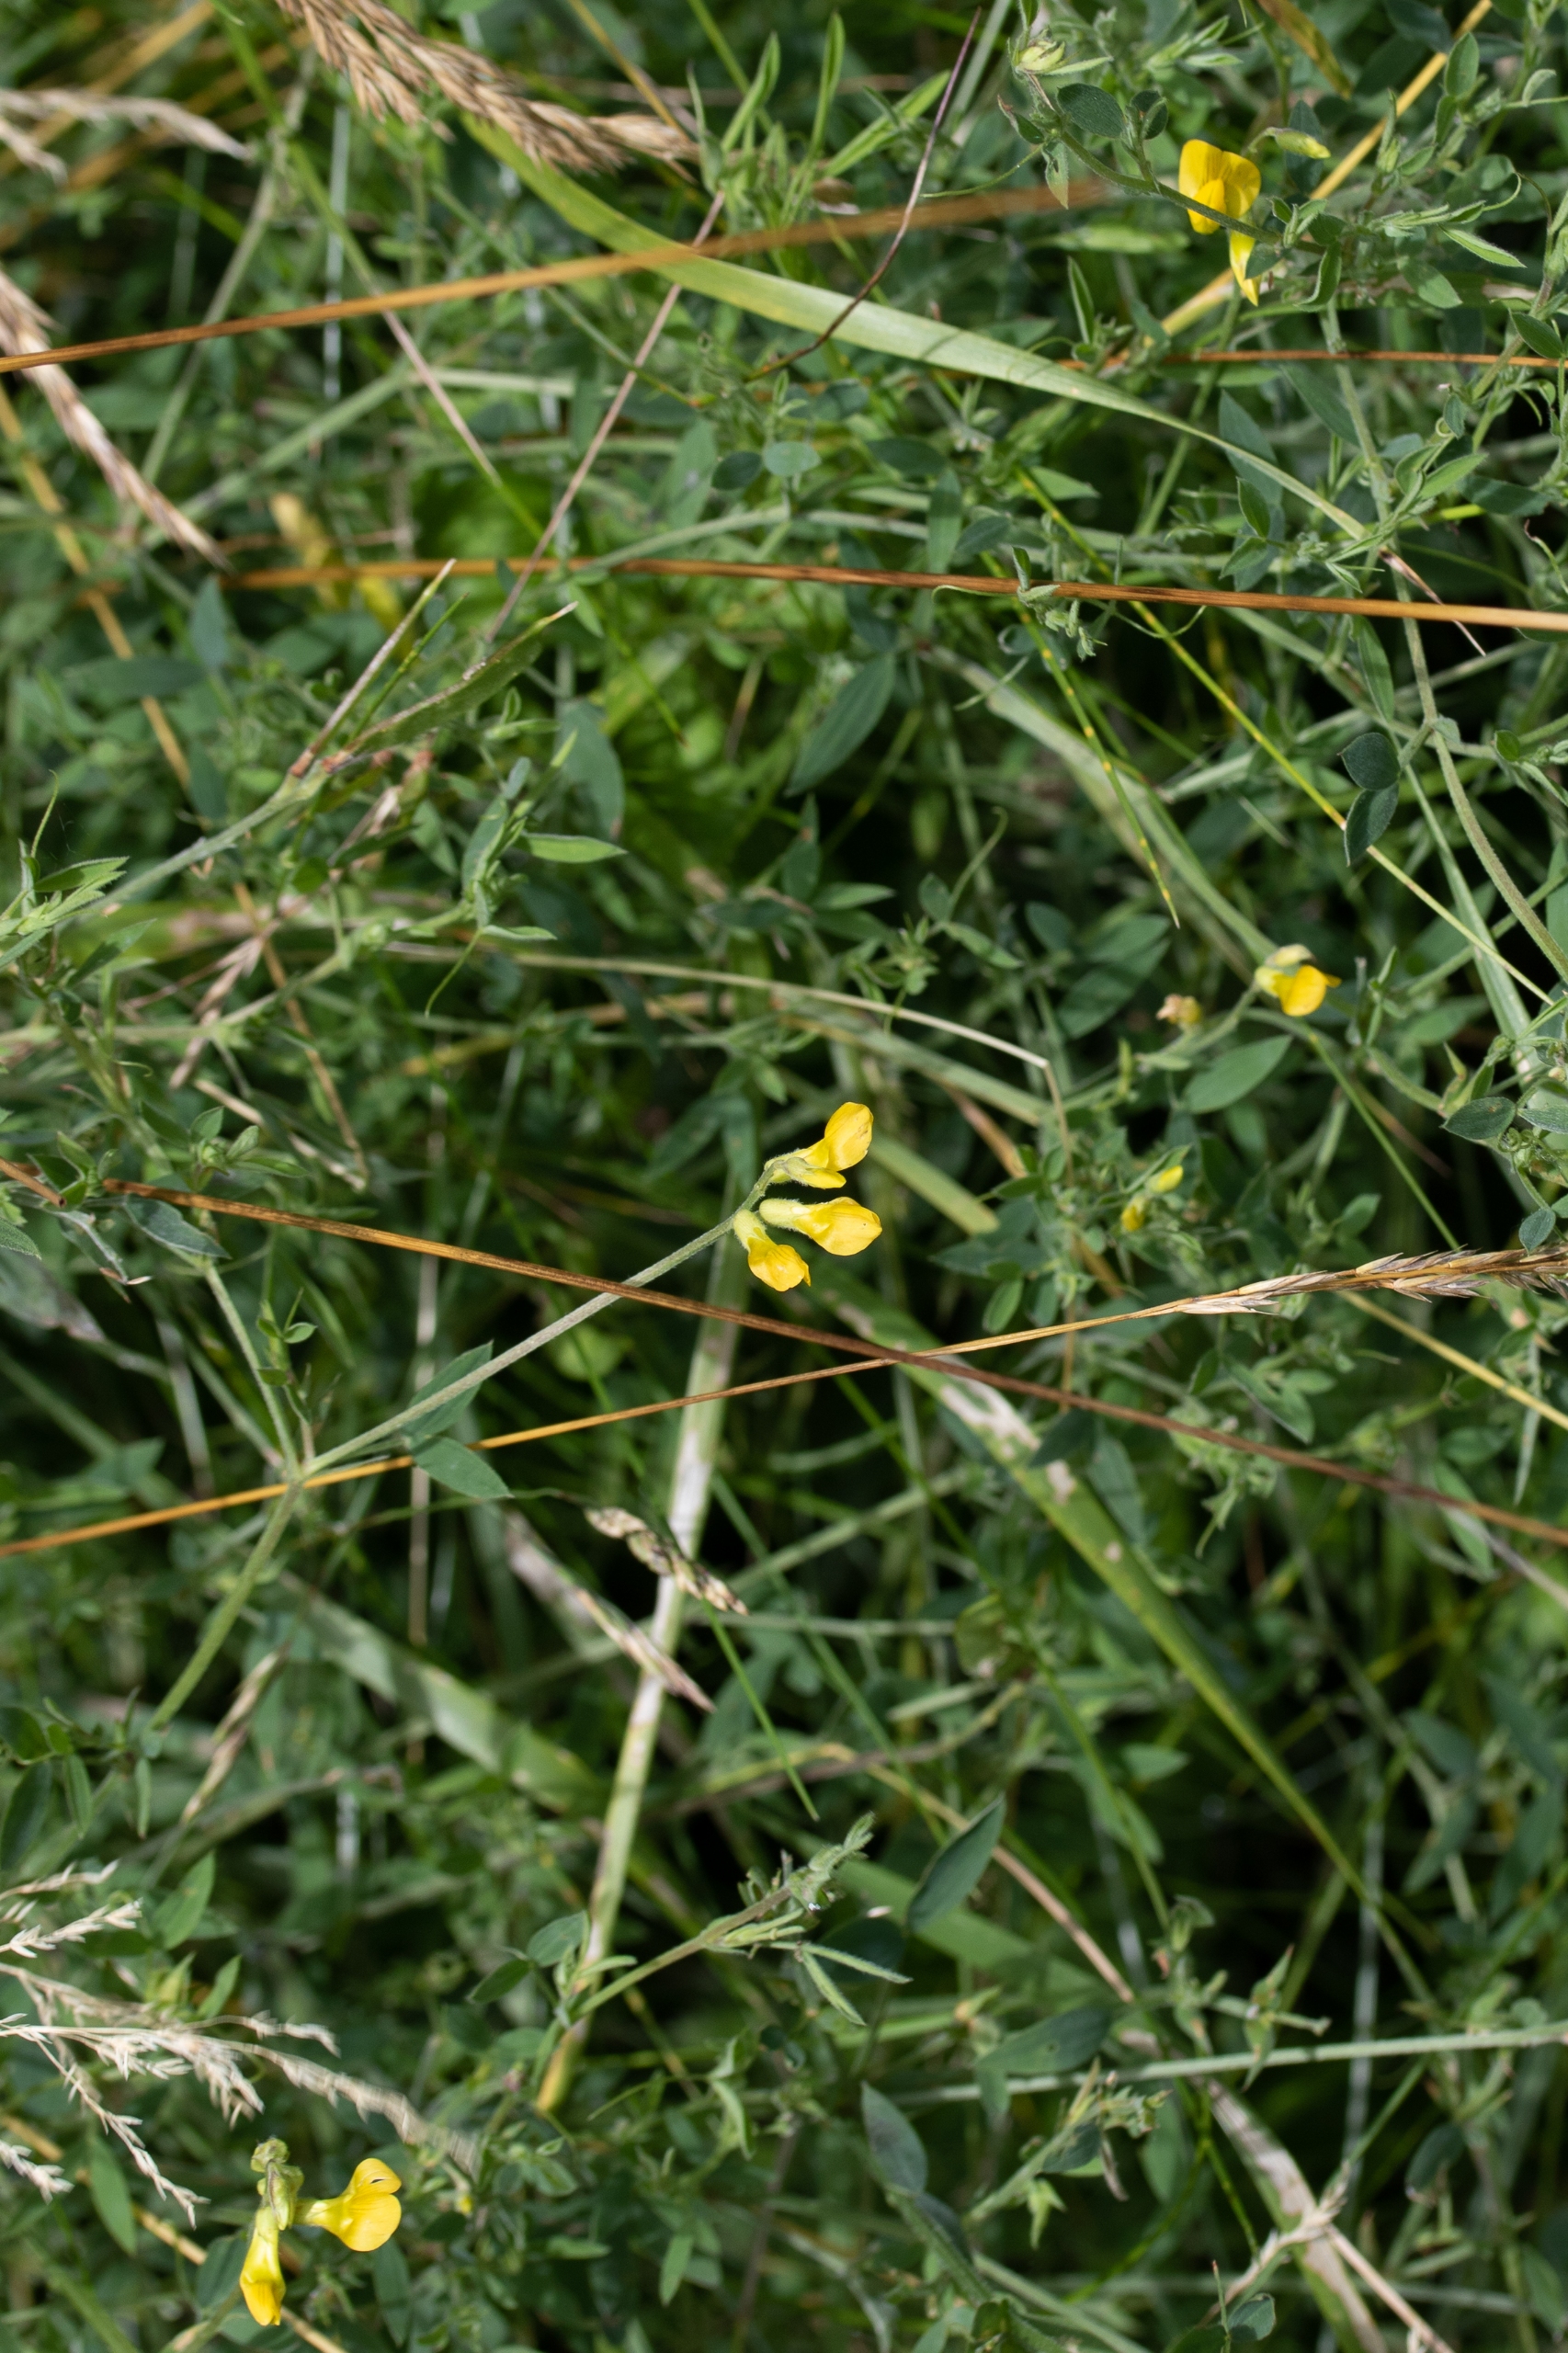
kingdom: Plantae
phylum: Tracheophyta
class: Magnoliopsida
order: Fabales
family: Fabaceae
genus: Lathyrus
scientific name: Lathyrus pratensis
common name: Gul fladbælg
